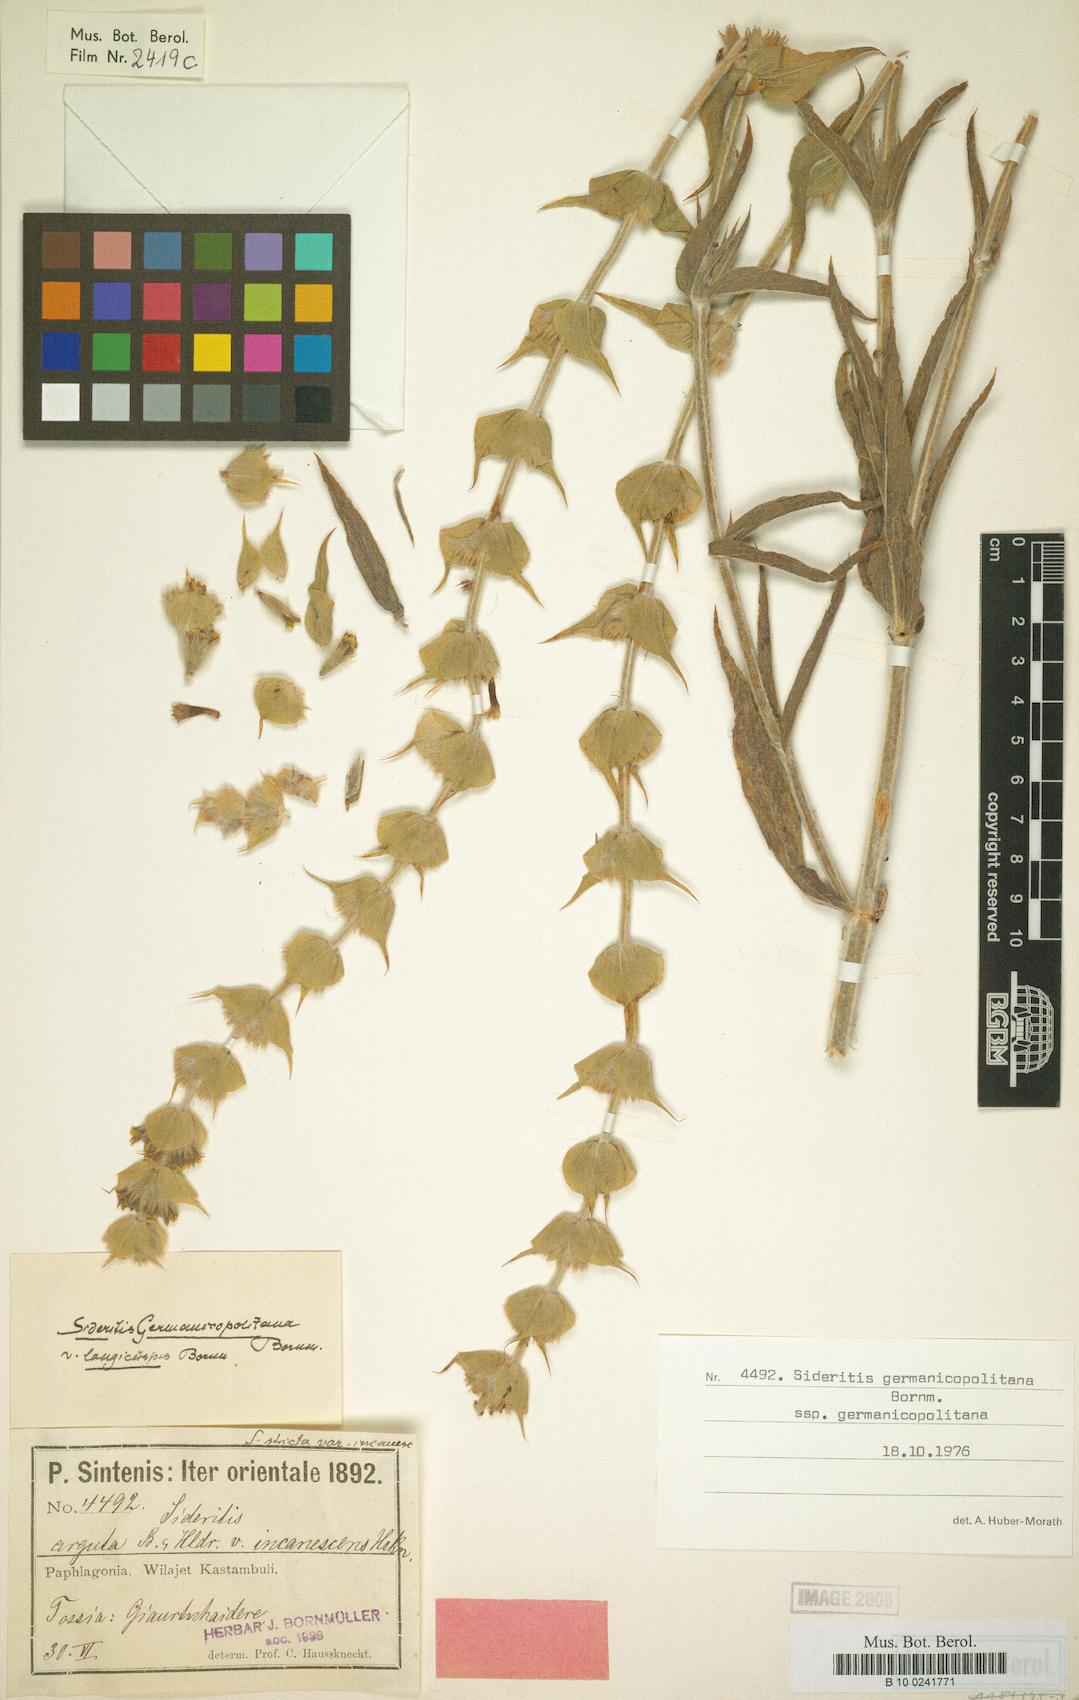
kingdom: Plantae
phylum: Tracheophyta
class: Magnoliopsida
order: Lamiales
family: Lamiaceae
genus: Sideritis
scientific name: Sideritis germanicopolitana
